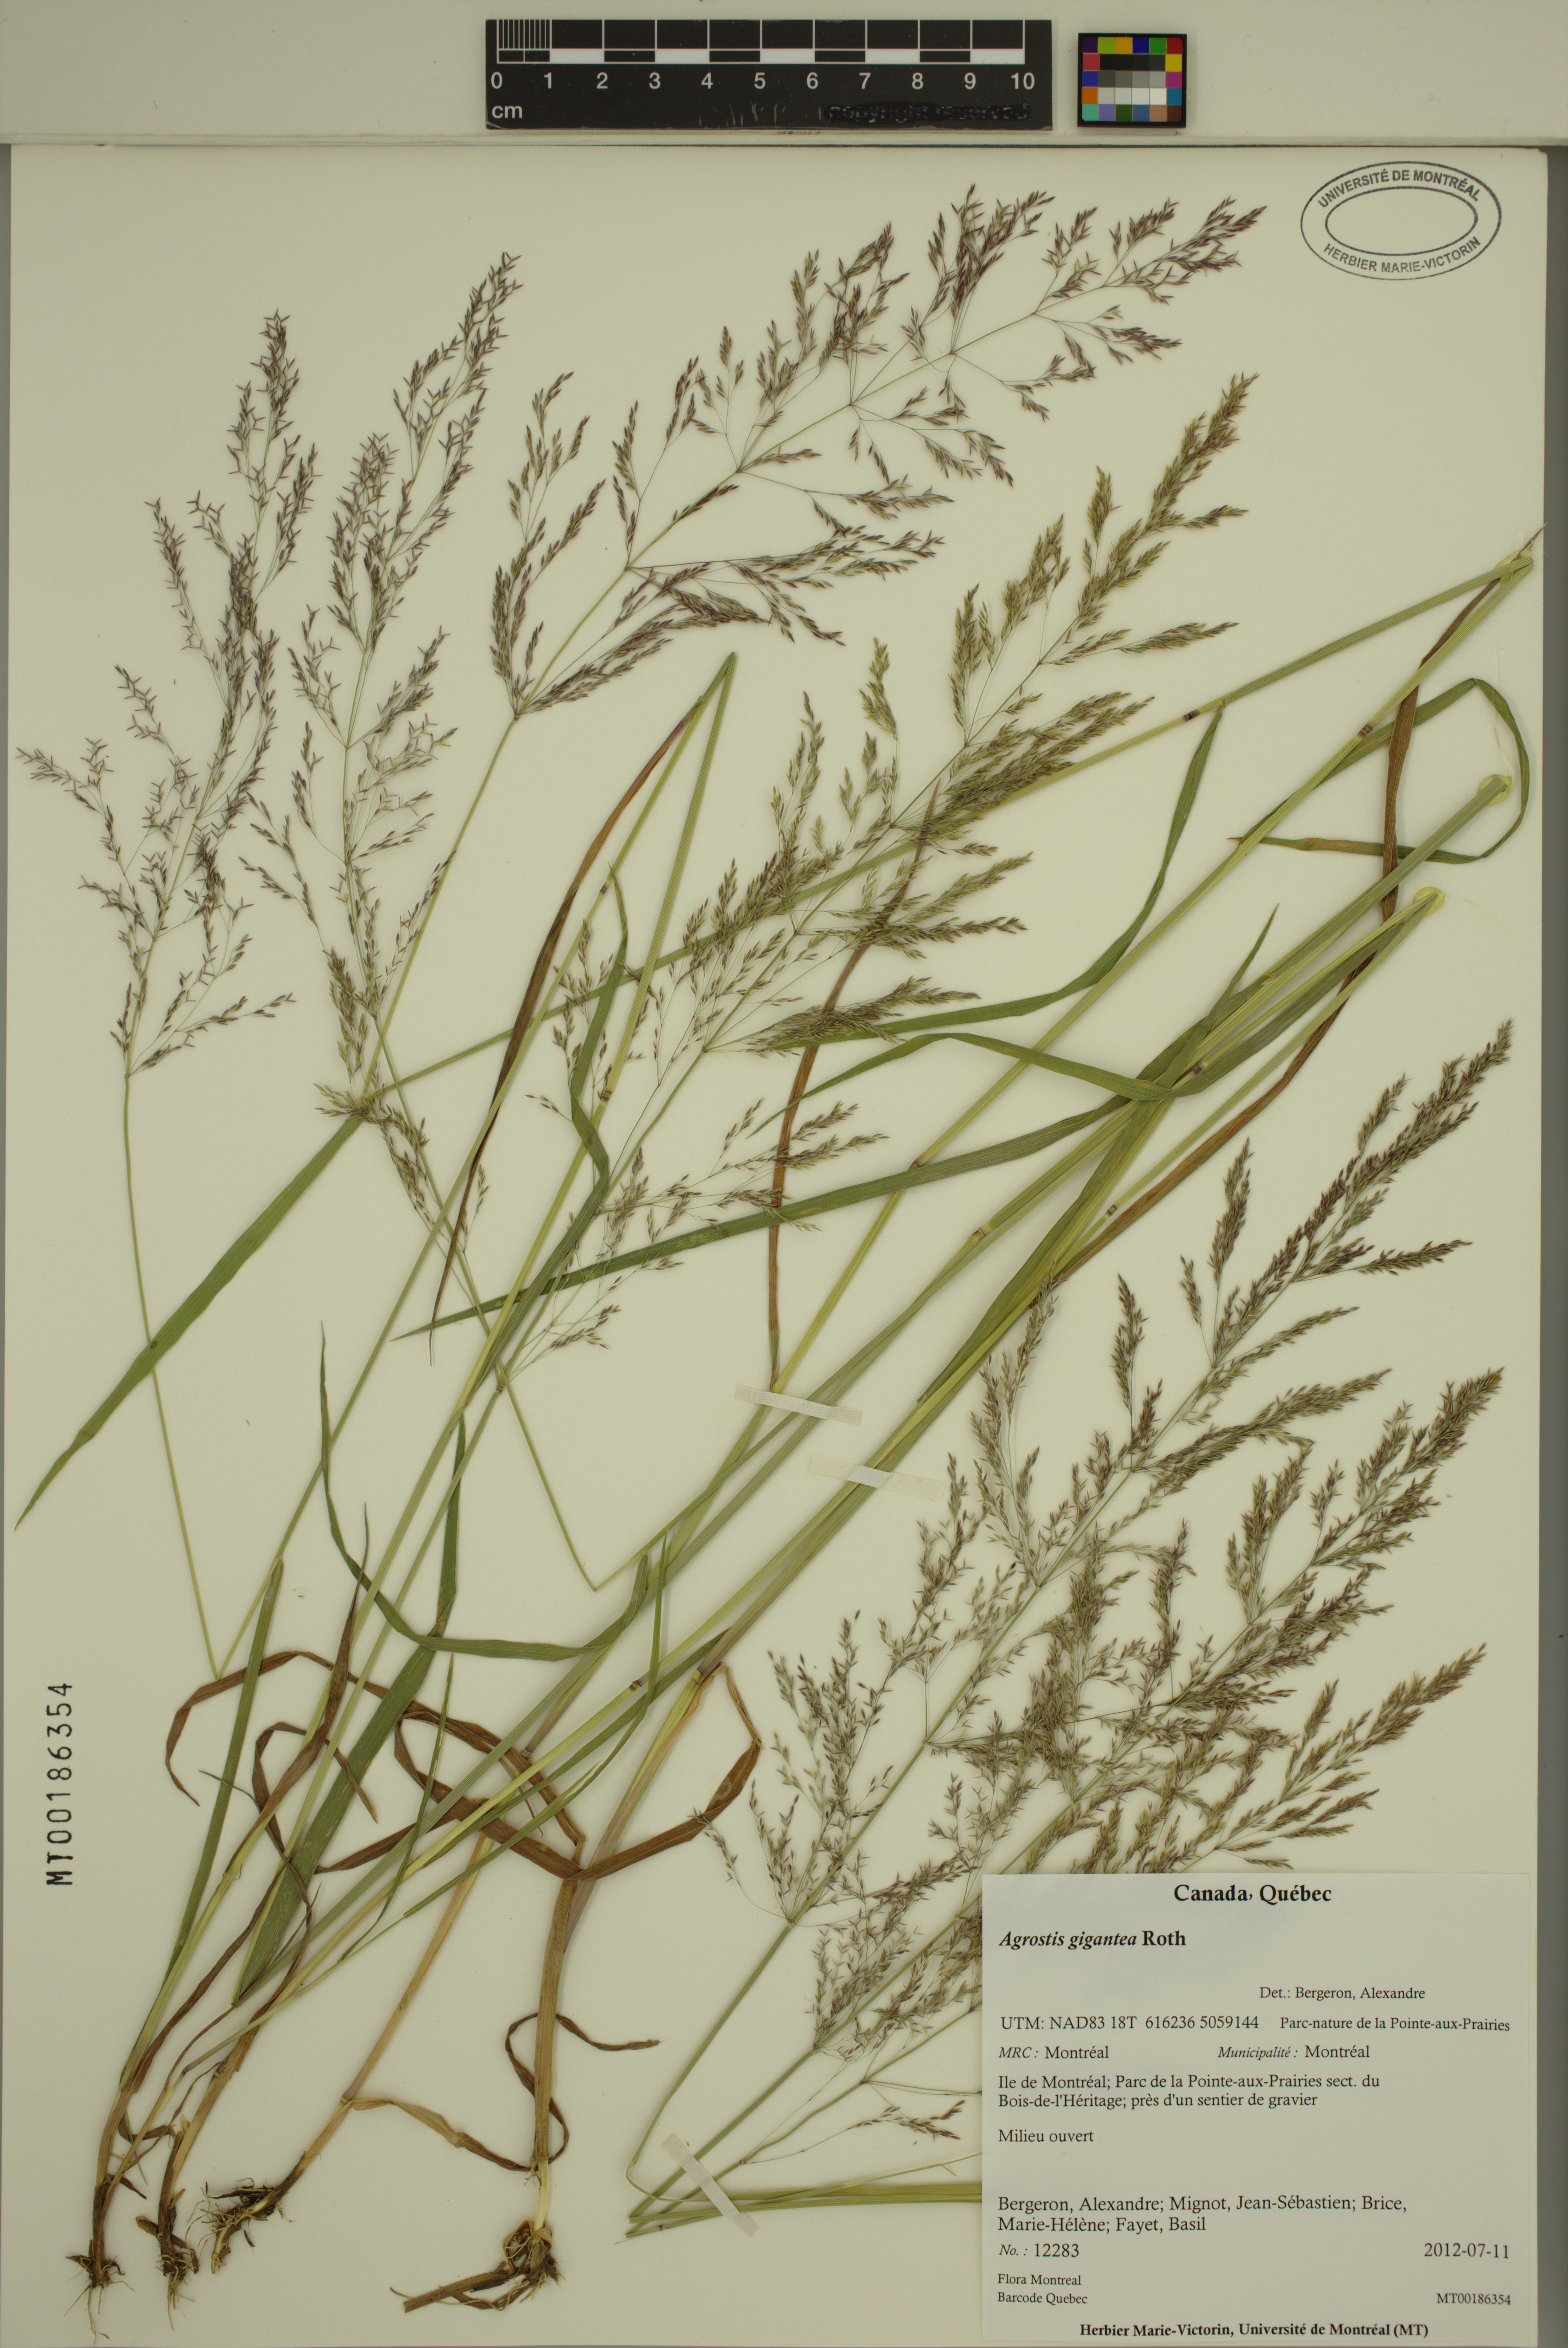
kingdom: Plantae
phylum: Tracheophyta
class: Liliopsida
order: Poales
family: Poaceae
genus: Agrostis
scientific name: Agrostis gigantea
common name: Black bent
